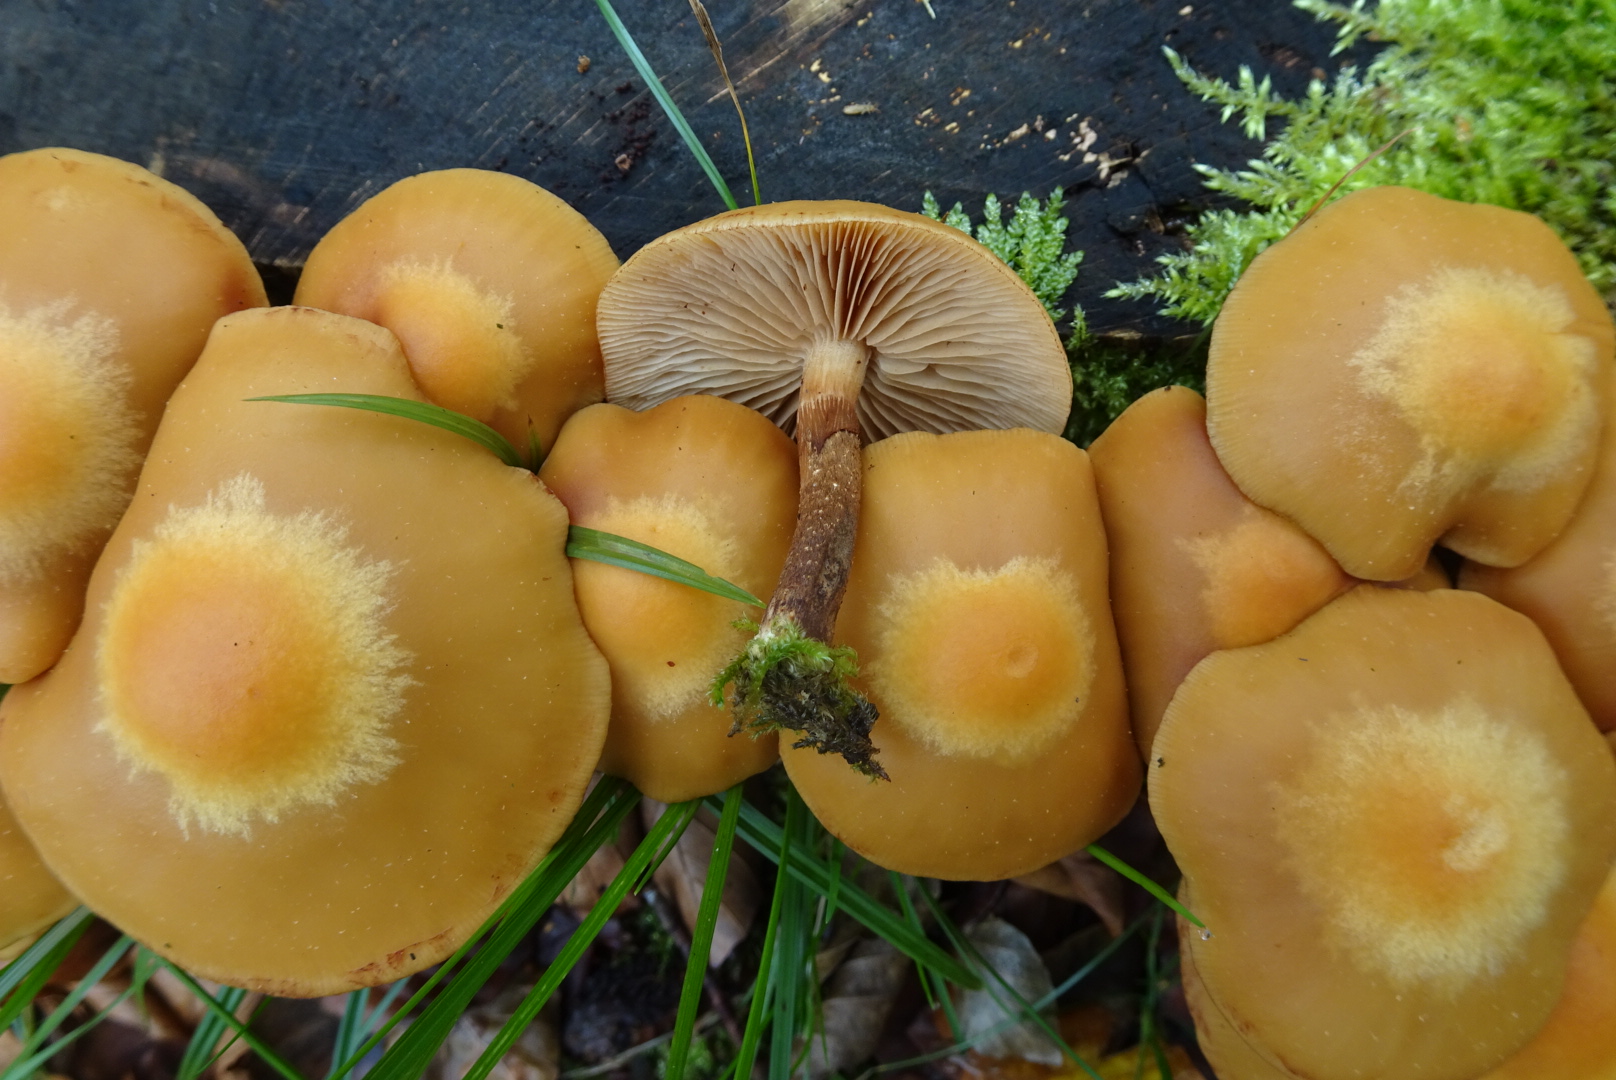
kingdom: Fungi
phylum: Basidiomycota
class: Agaricomycetes
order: Agaricales
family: Strophariaceae
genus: Kuehneromyces
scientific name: Kuehneromyces mutabilis
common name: foranderlig skælhat
